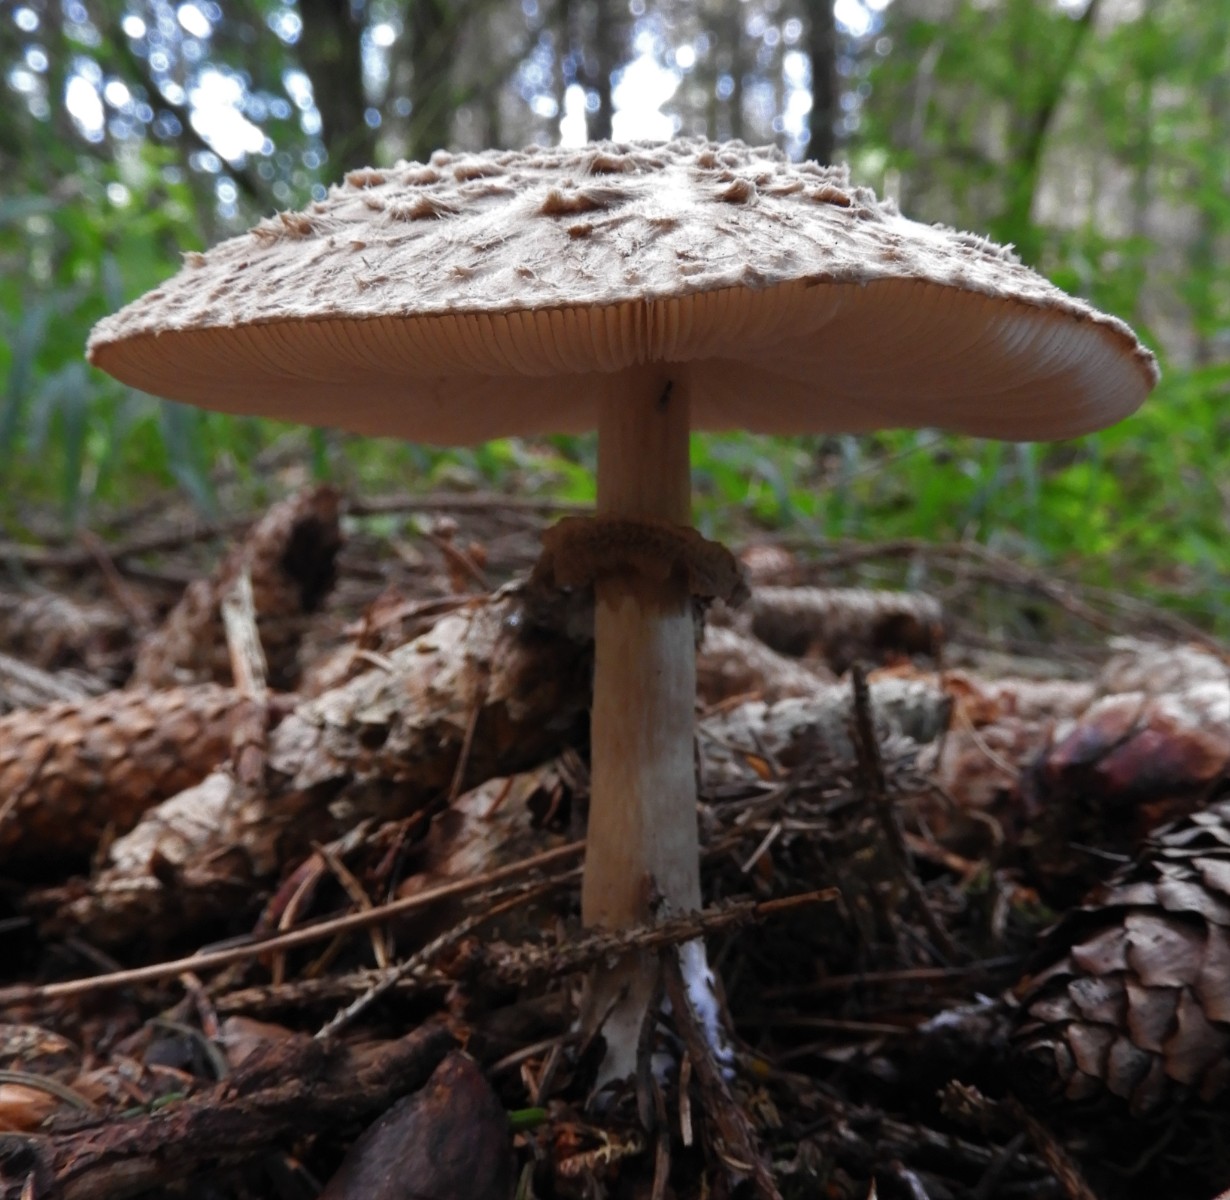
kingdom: Fungi
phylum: Basidiomycota
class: Agaricomycetes
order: Agaricales
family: Agaricaceae
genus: Chlorophyllum
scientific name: Chlorophyllum olivieri
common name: almindelig rabarberhat
